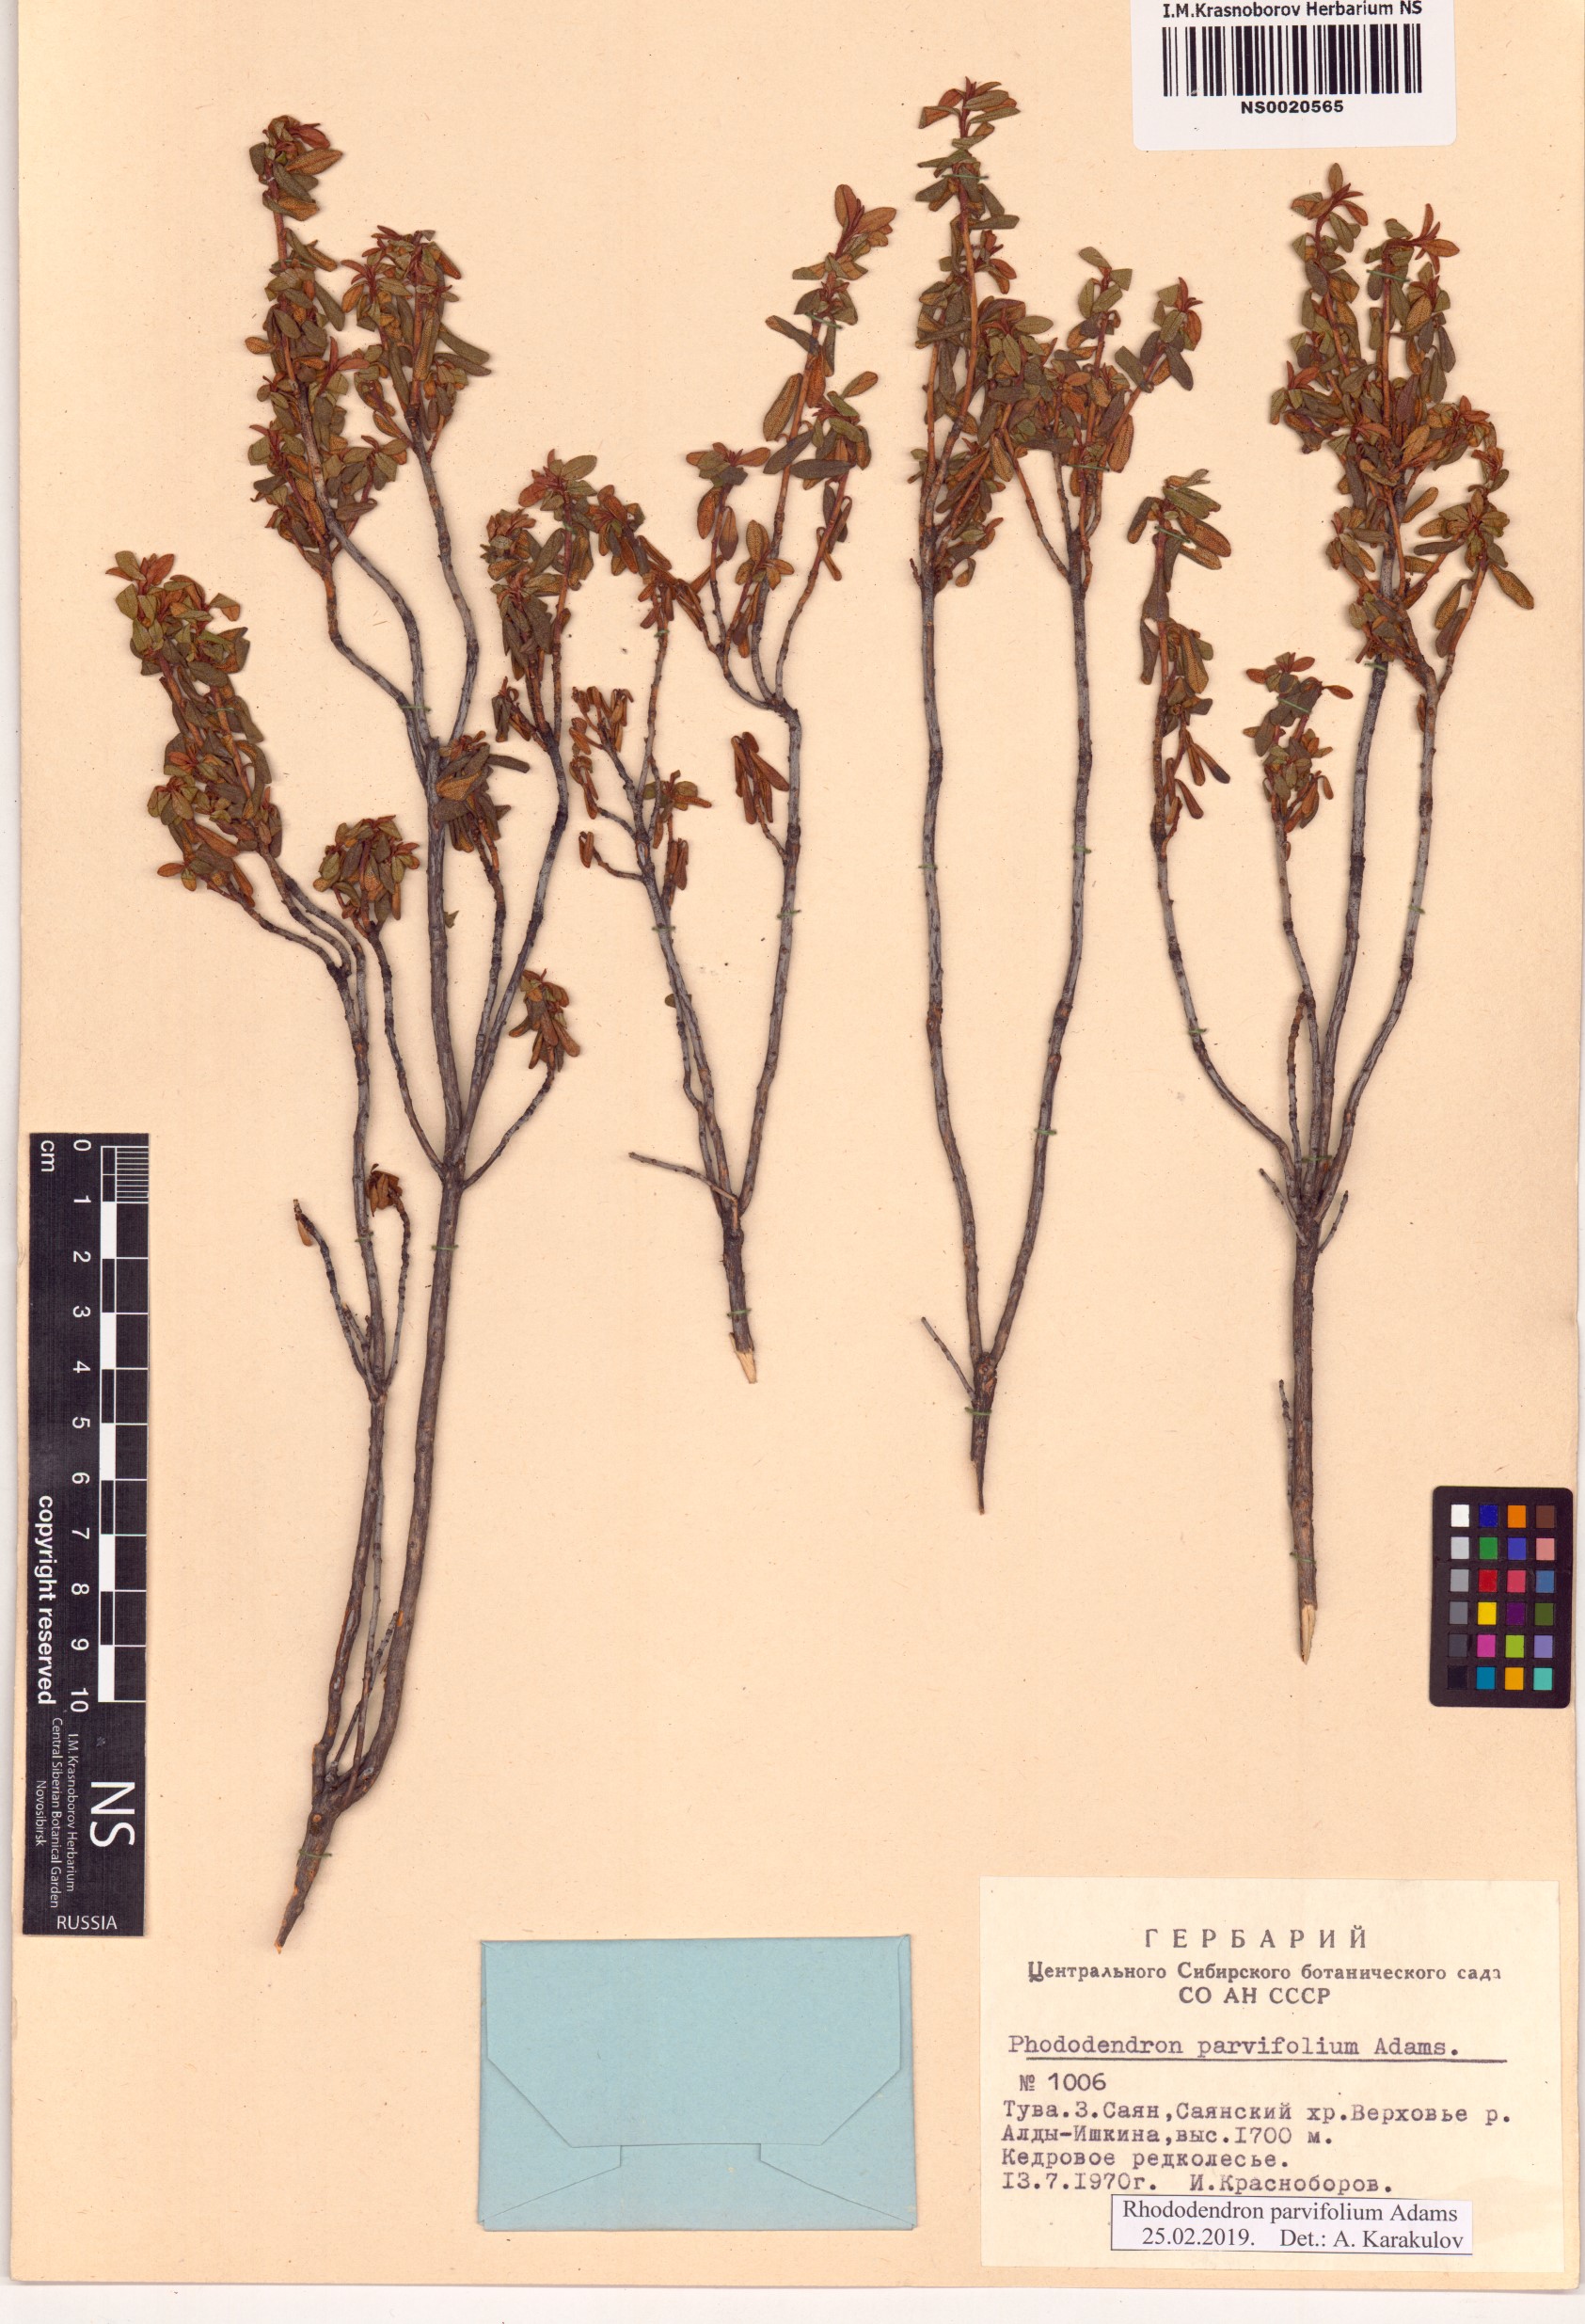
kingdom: Plantae
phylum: Tracheophyta
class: Magnoliopsida
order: Ericales
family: Ericaceae
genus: Rhododendron
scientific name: Rhododendron parvifolium
